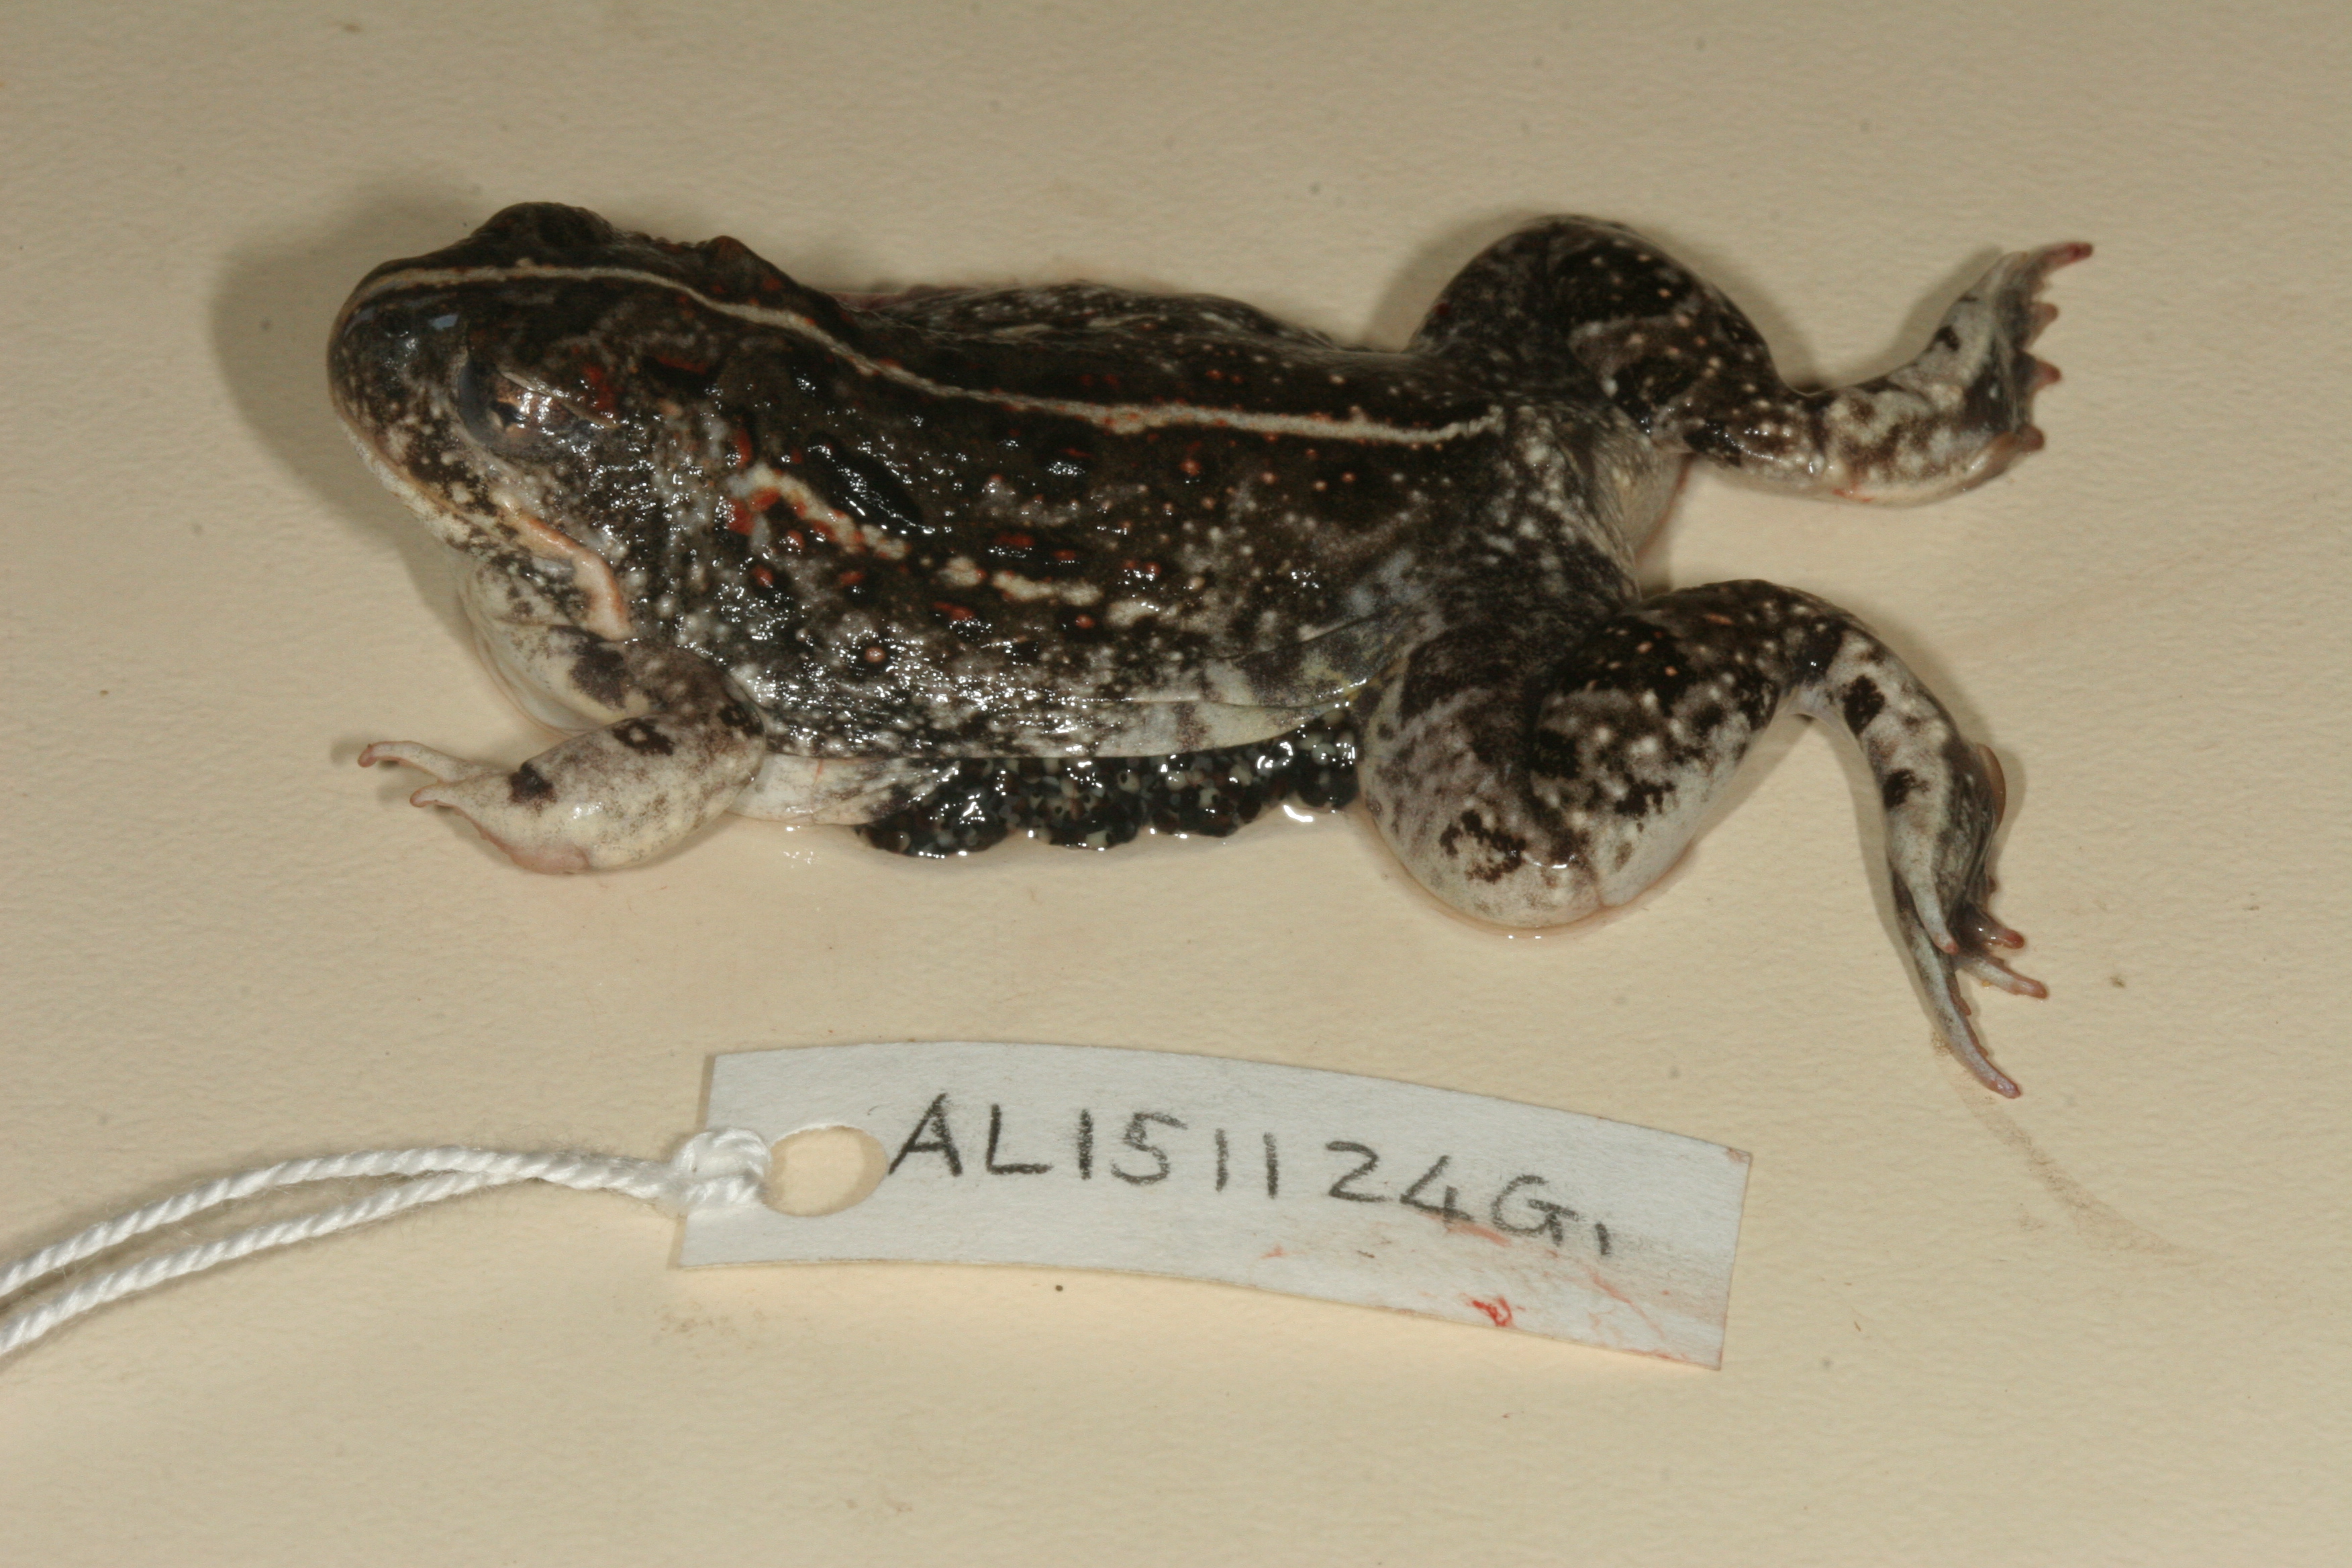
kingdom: Animalia
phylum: Chordata
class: Amphibia
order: Anura
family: Pyxicephalidae
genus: Tomopterna
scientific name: Tomopterna cryptotis
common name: Catequero bullfrog
